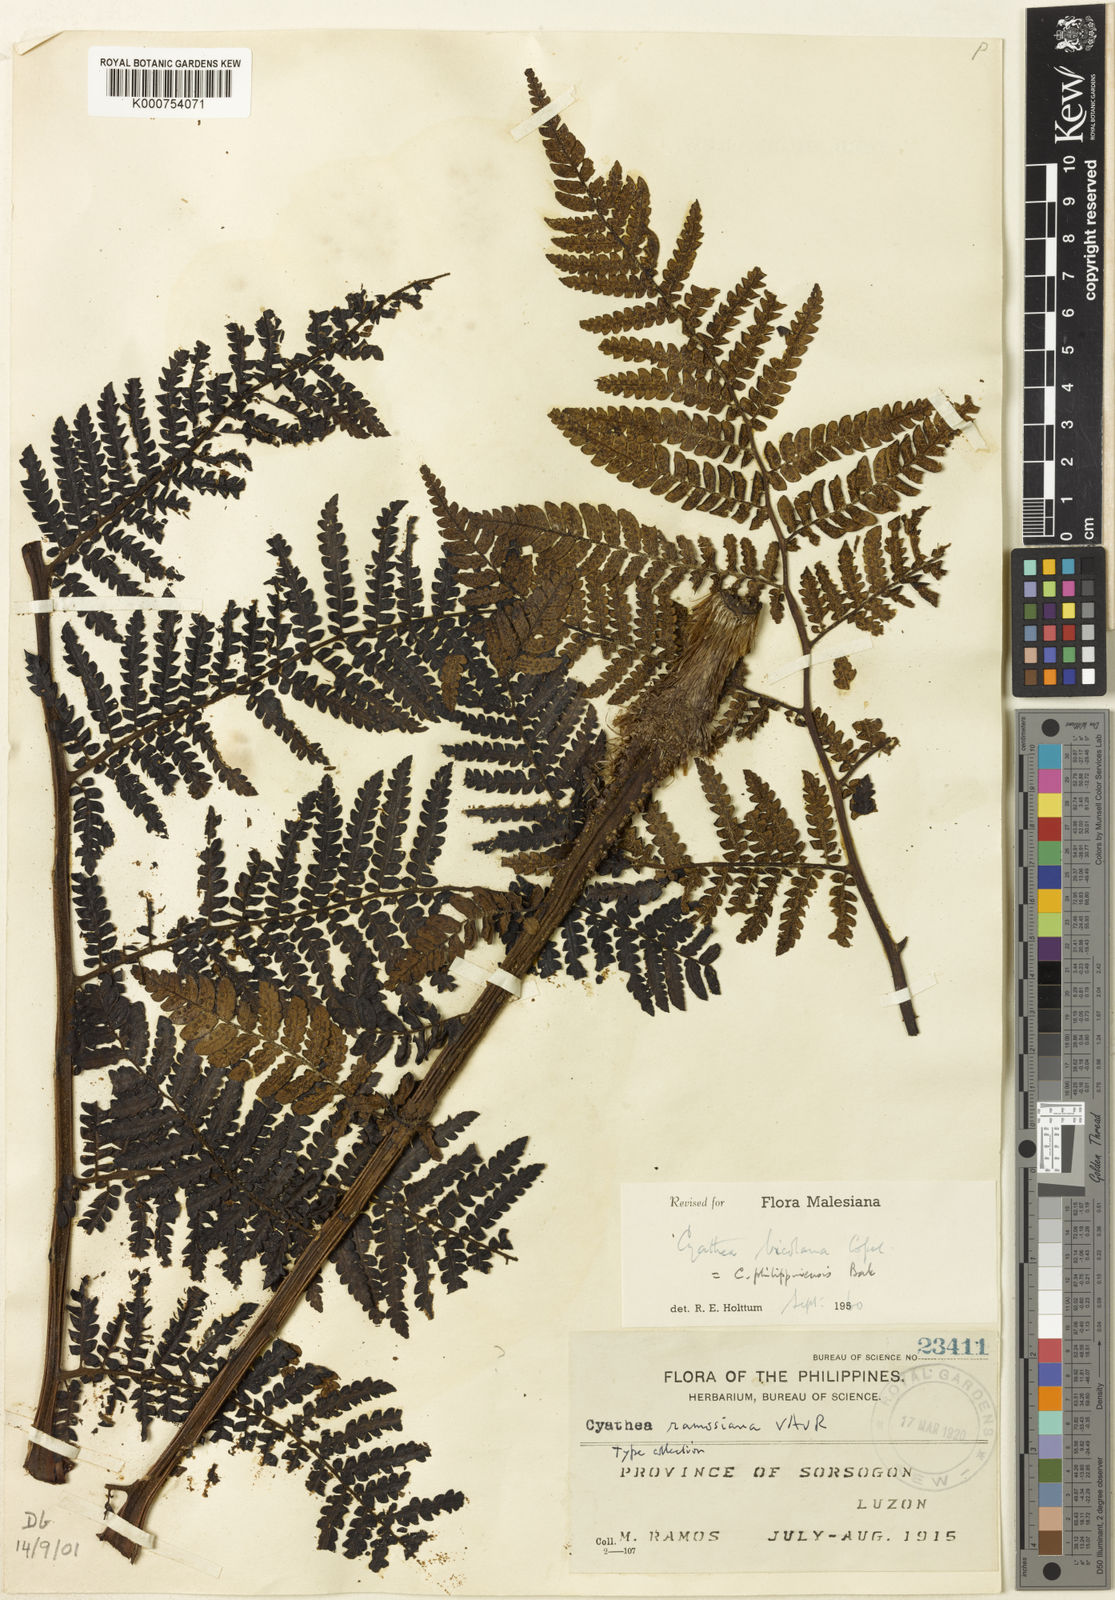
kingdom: Plantae
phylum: Tracheophyta
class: Polypodiopsida
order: Cyatheales
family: Cyatheaceae
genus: Sphaeropteris
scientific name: Sphaeropteris philippinensis
